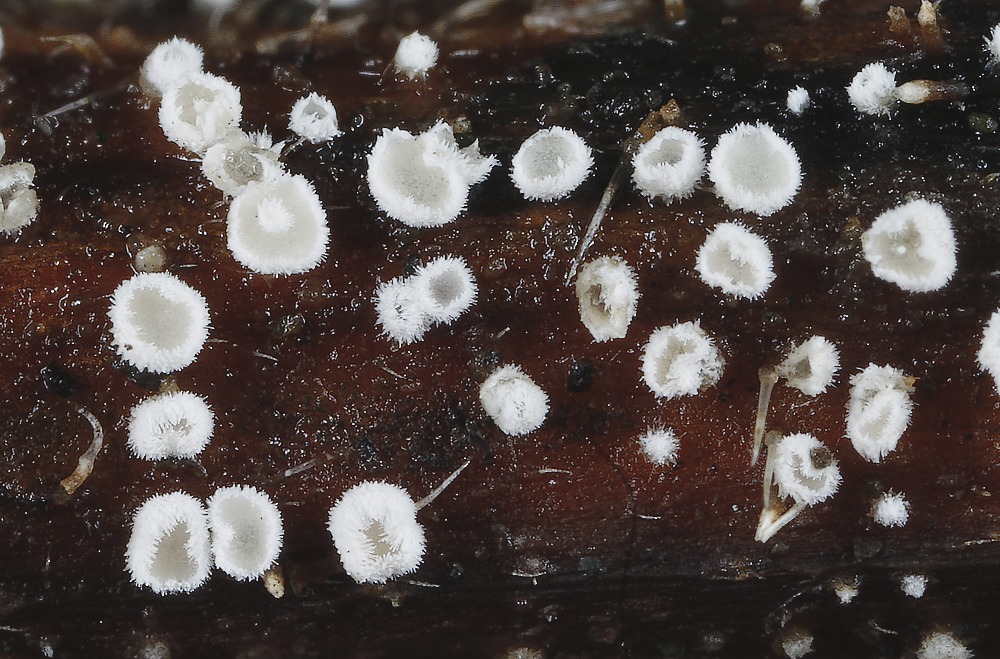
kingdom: Fungi
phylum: Basidiomycota
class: Agaricomycetes
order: Agaricales
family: Niaceae
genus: Lachnella
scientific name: Lachnella villosa
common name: hvid frynserede
